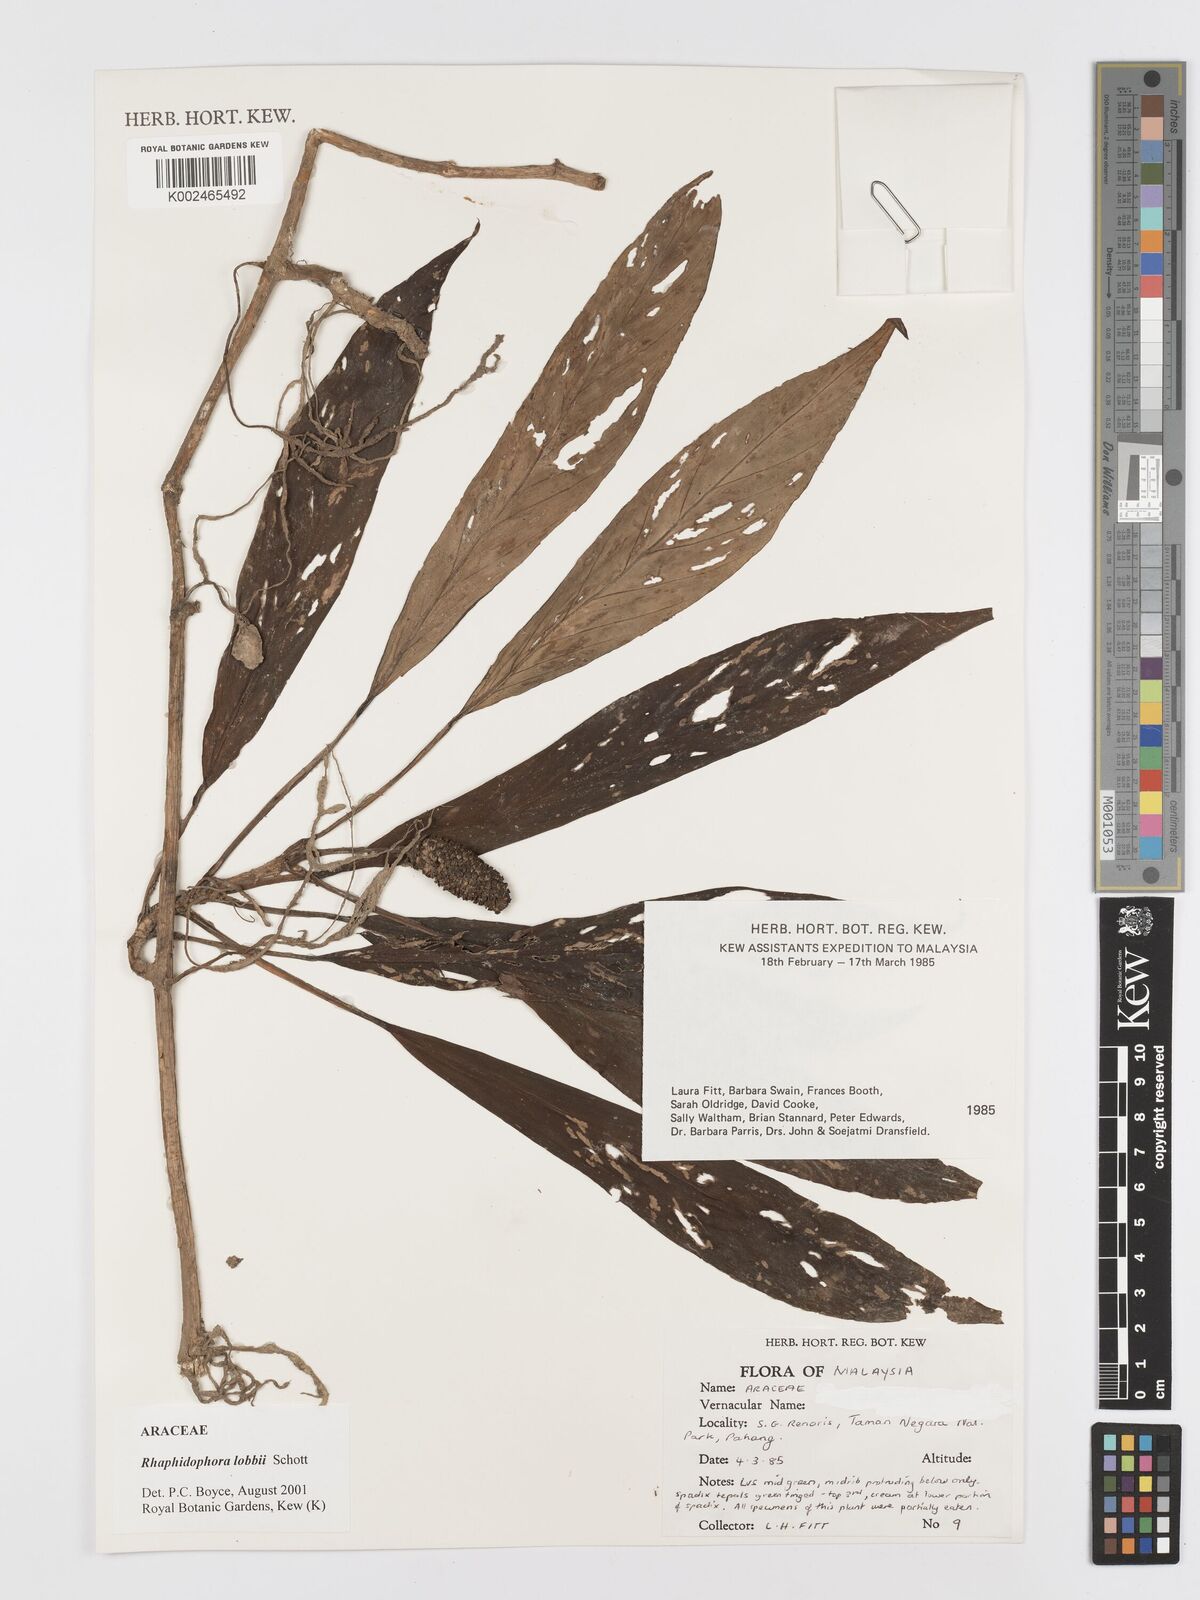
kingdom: Plantae
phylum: Tracheophyta
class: Liliopsida
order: Alismatales
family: Araceae
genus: Rhaphidophora
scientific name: Rhaphidophora lobbii
